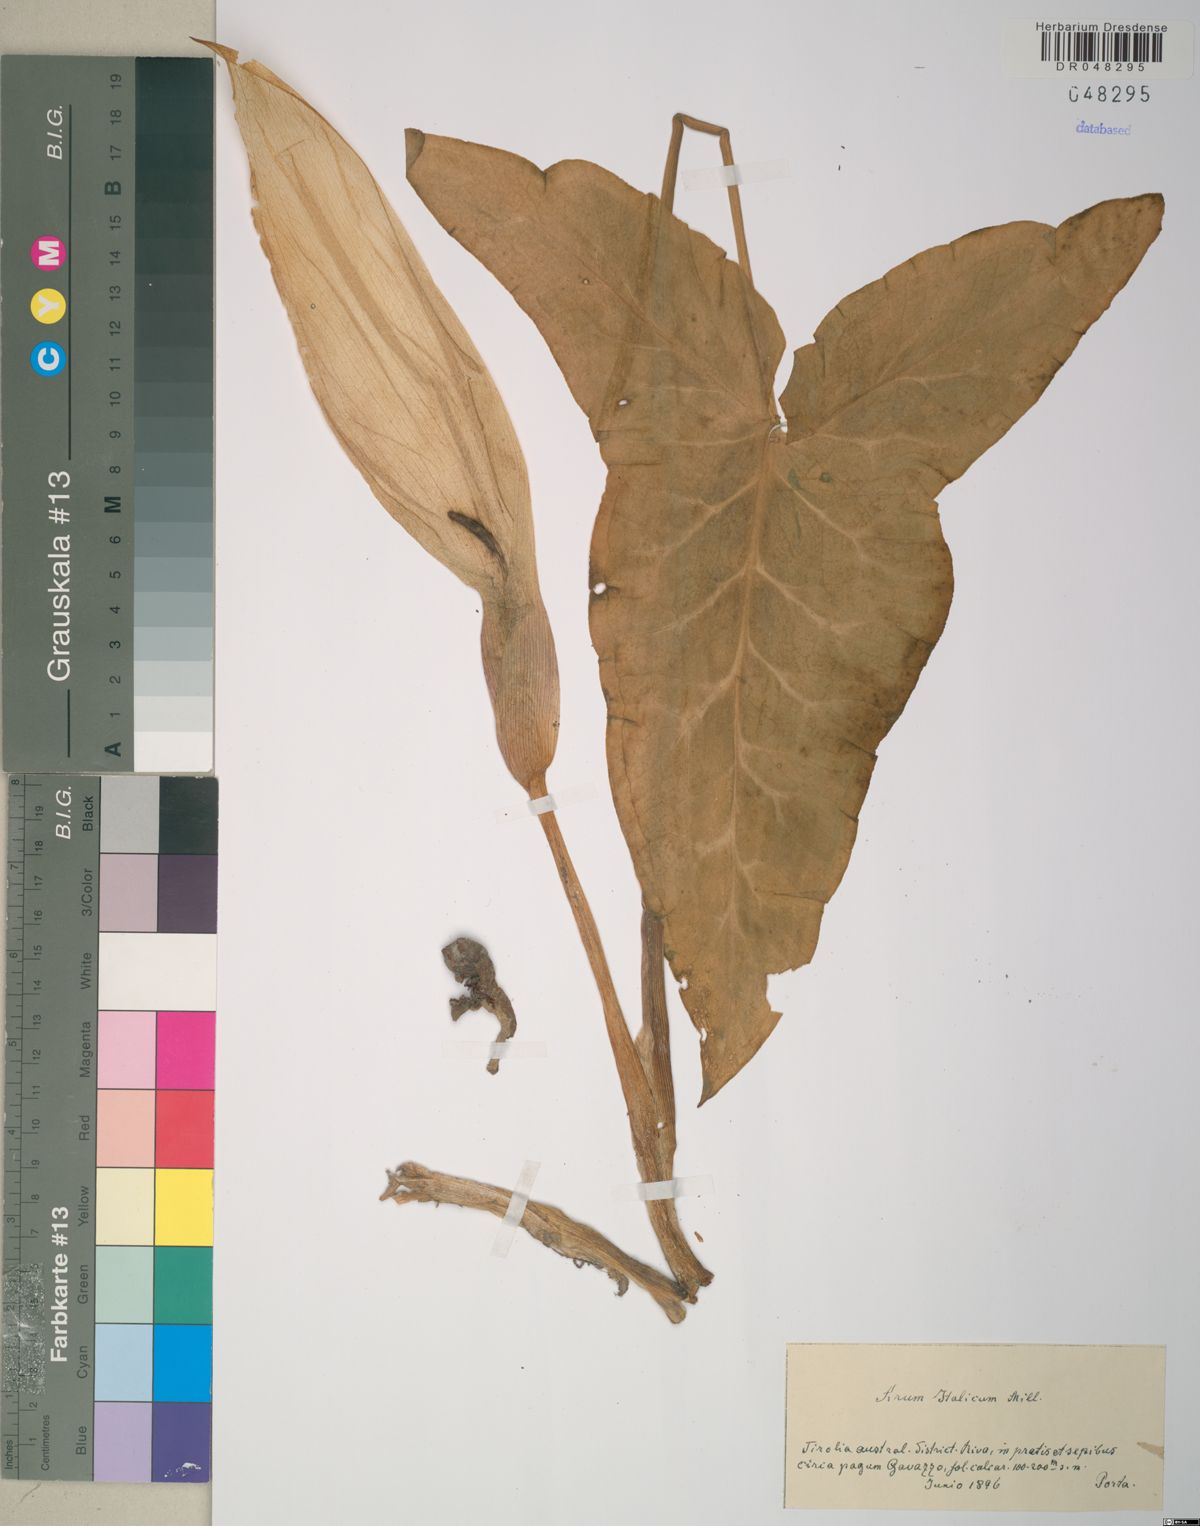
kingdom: Plantae
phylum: Tracheophyta
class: Liliopsida
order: Alismatales
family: Araceae
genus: Arum
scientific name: Arum italicum
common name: Italian lords-and-ladies
